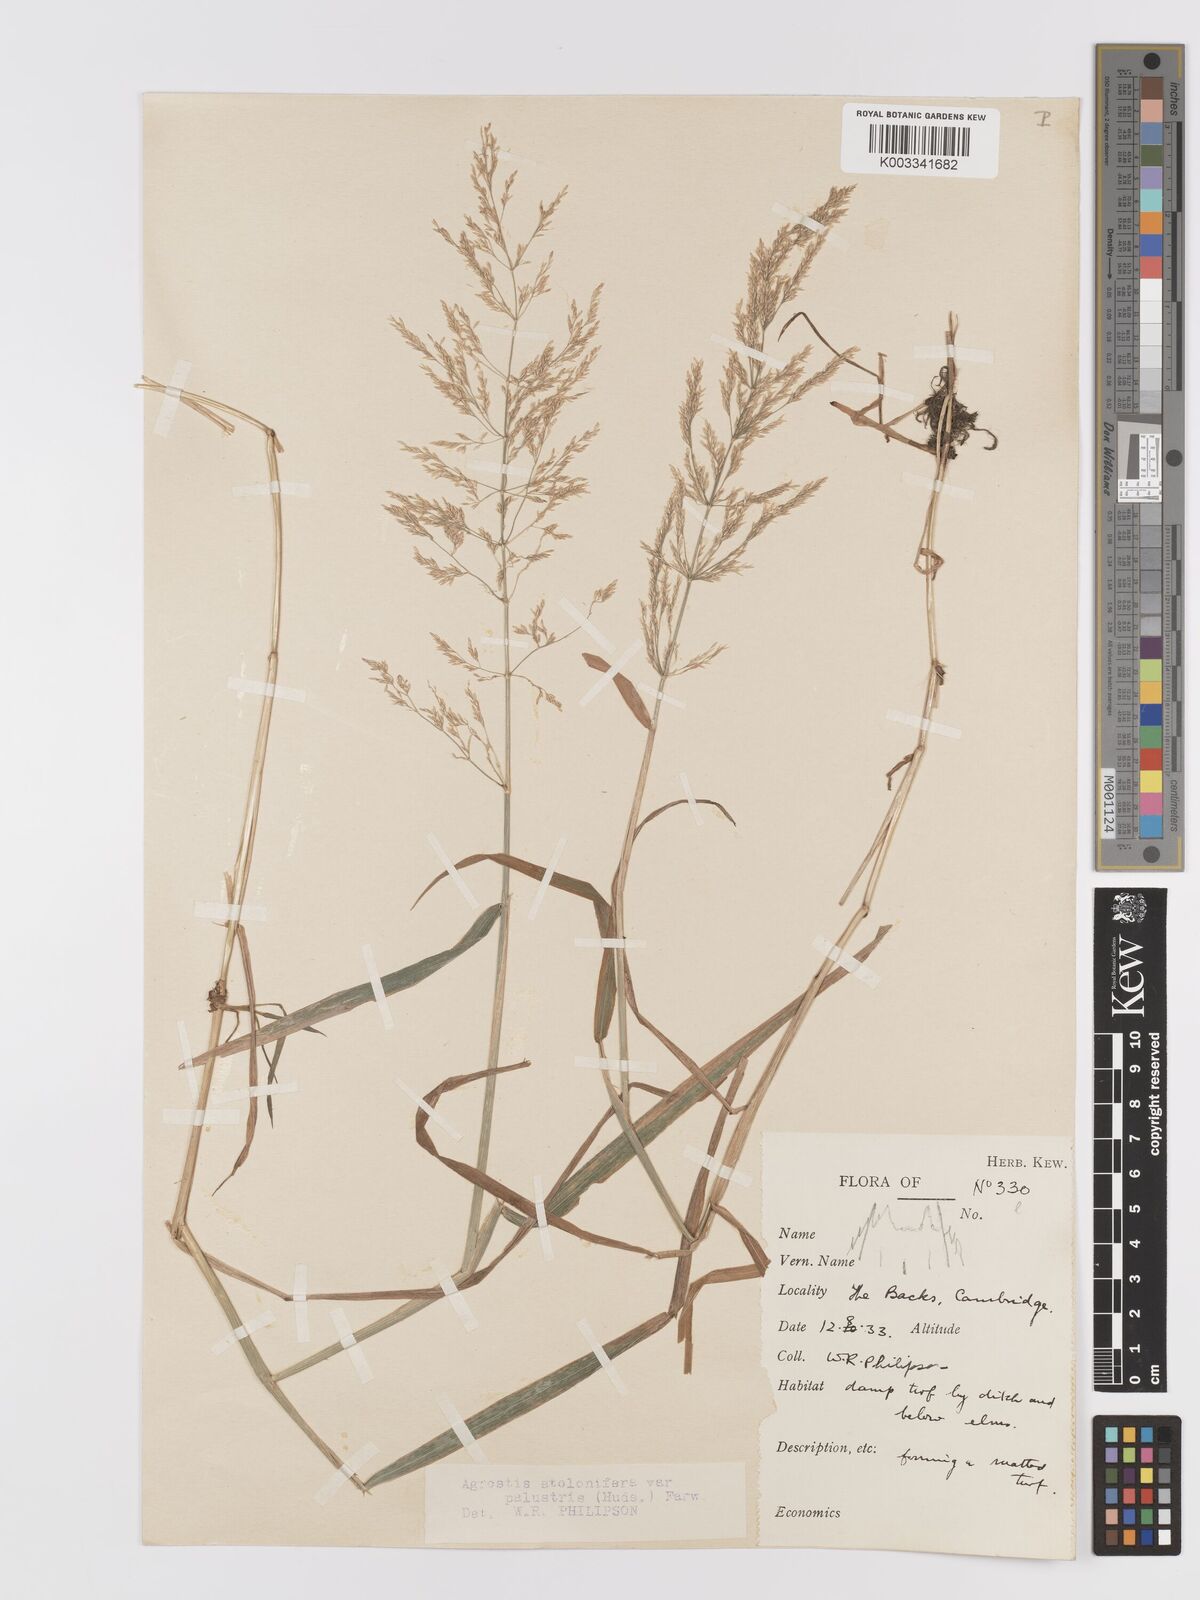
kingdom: Plantae
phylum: Tracheophyta
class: Liliopsida
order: Poales
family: Poaceae
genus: Agrostis
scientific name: Agrostis stolonifera
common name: Creeping bentgrass
